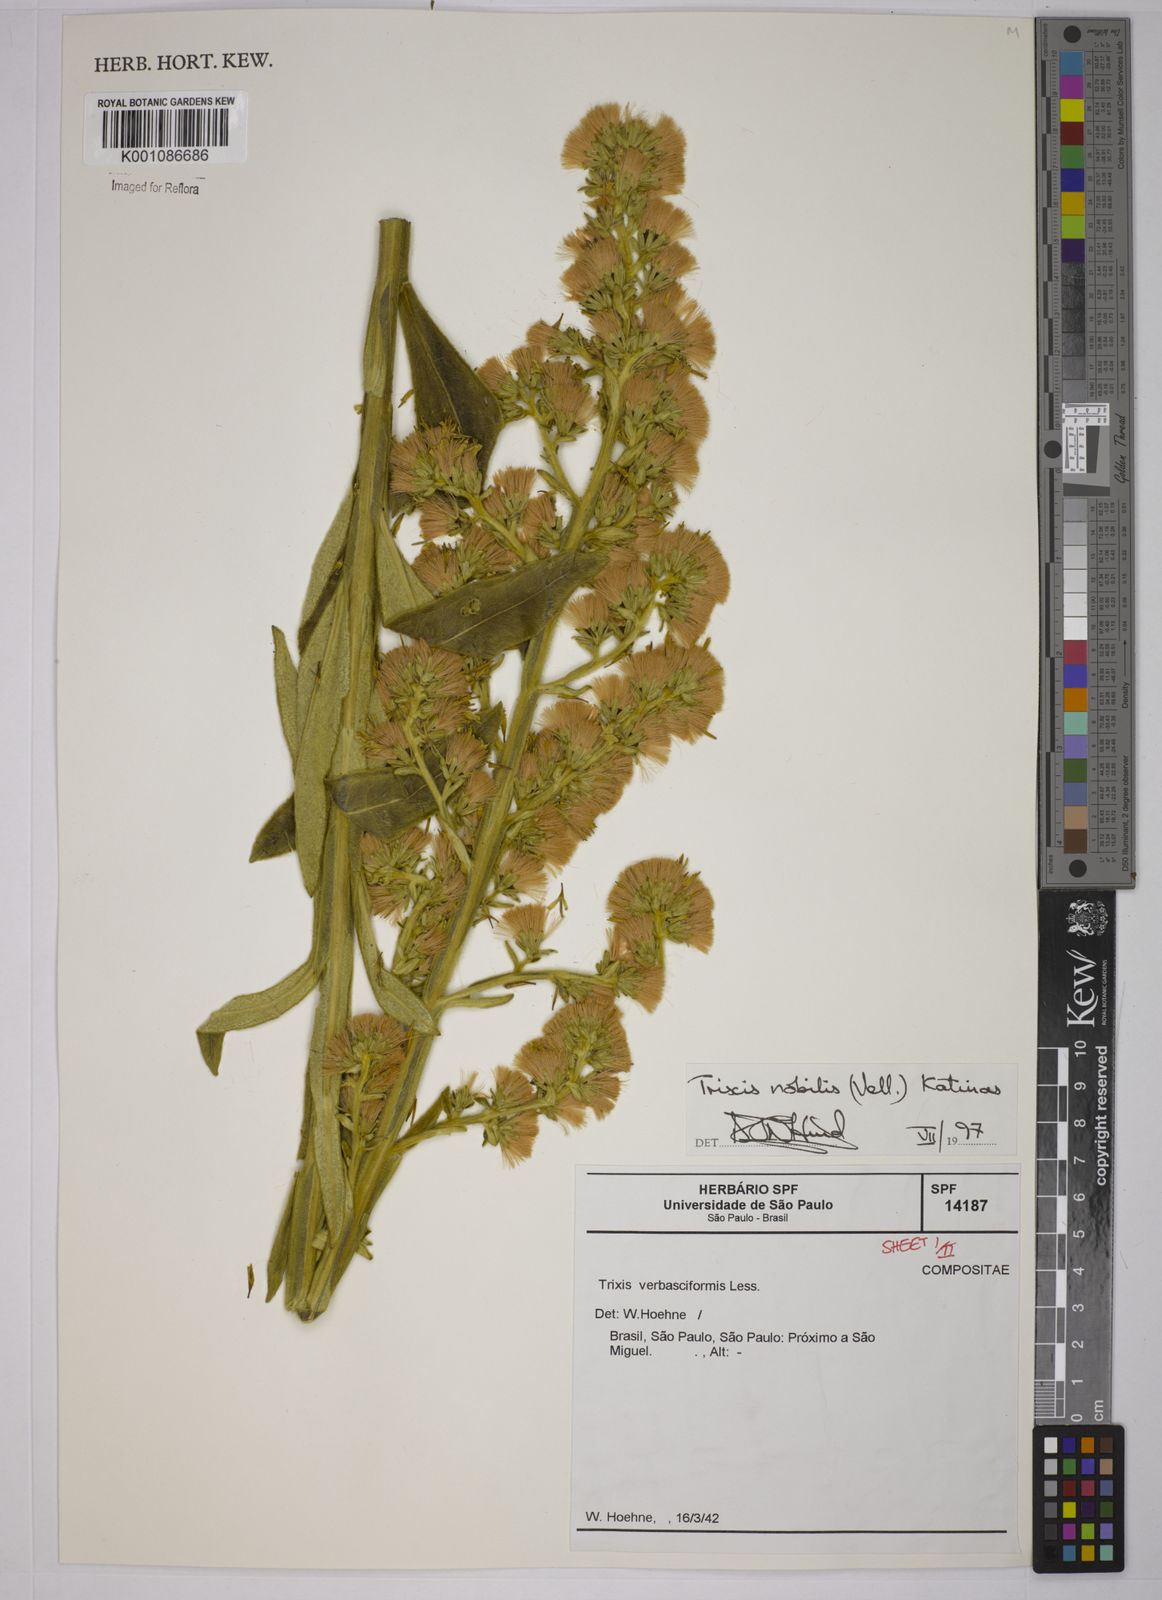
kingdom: Plantae
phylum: Tracheophyta
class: Magnoliopsida
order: Asterales
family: Asteraceae
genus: Trixis
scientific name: Trixis nobilis
